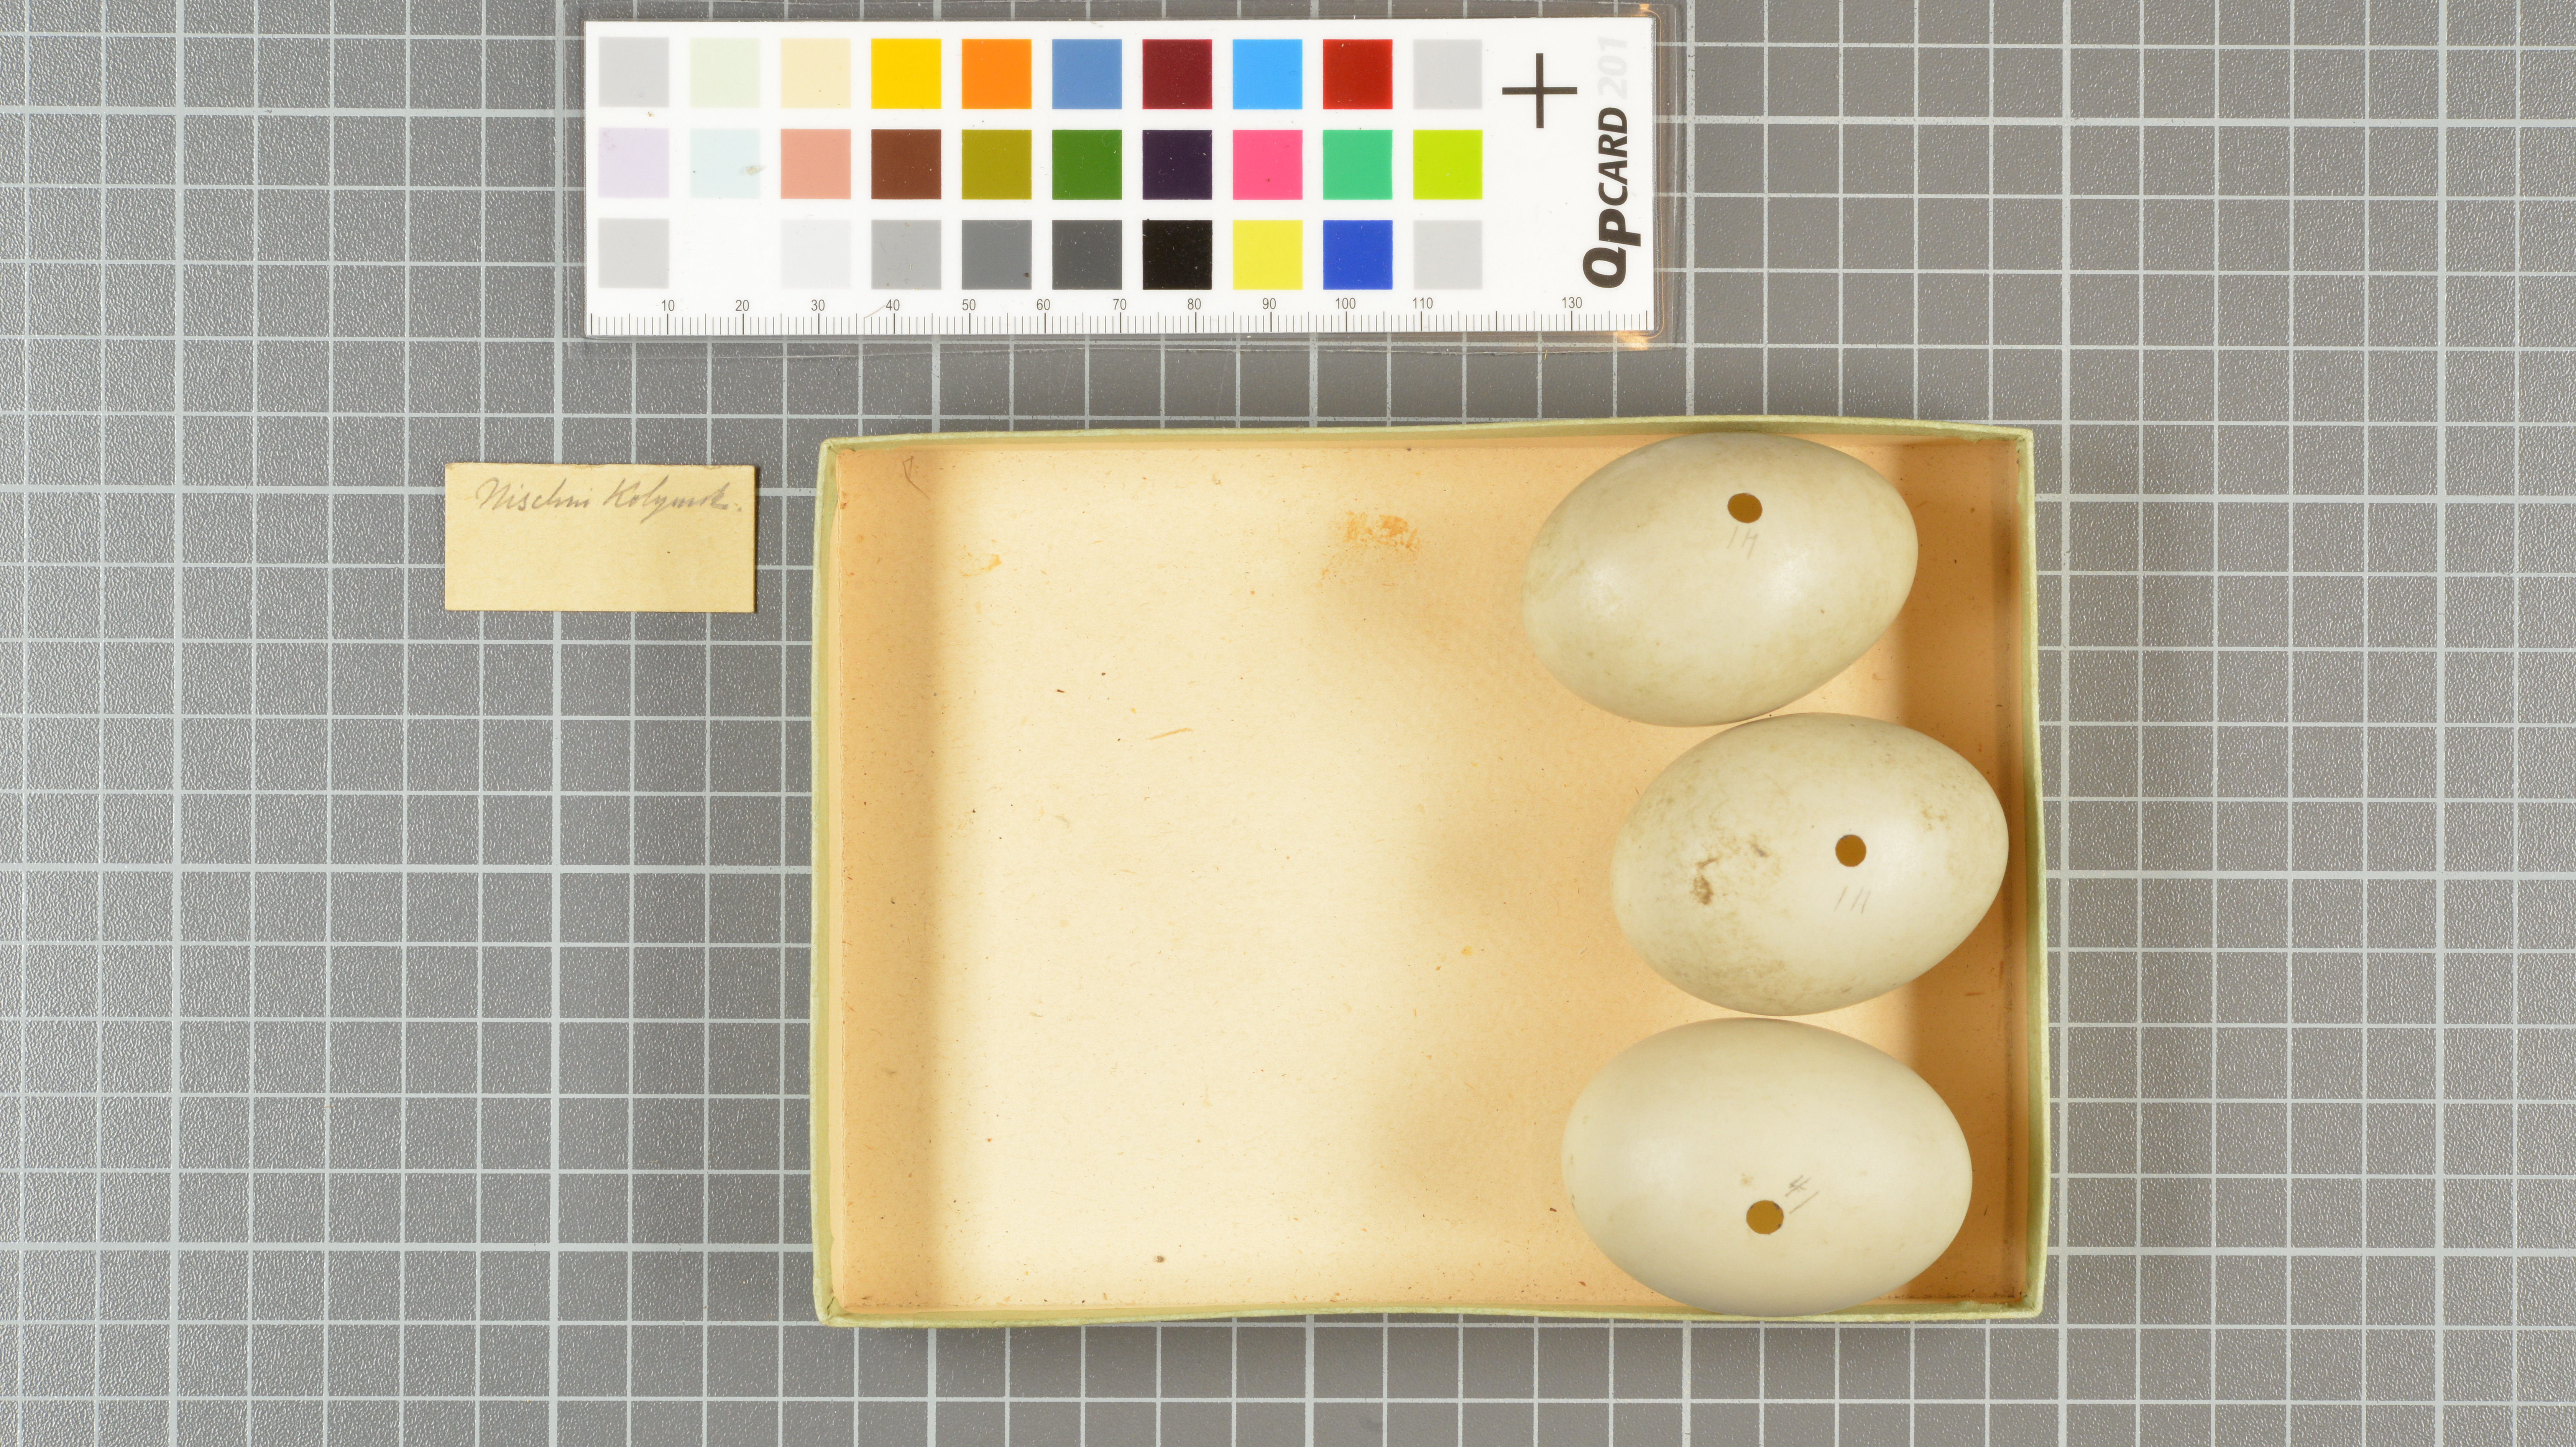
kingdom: Animalia
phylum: Chordata
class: Aves
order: Anseriformes
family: Anatidae
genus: Anas
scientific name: Anas acuta
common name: Northern pintail
